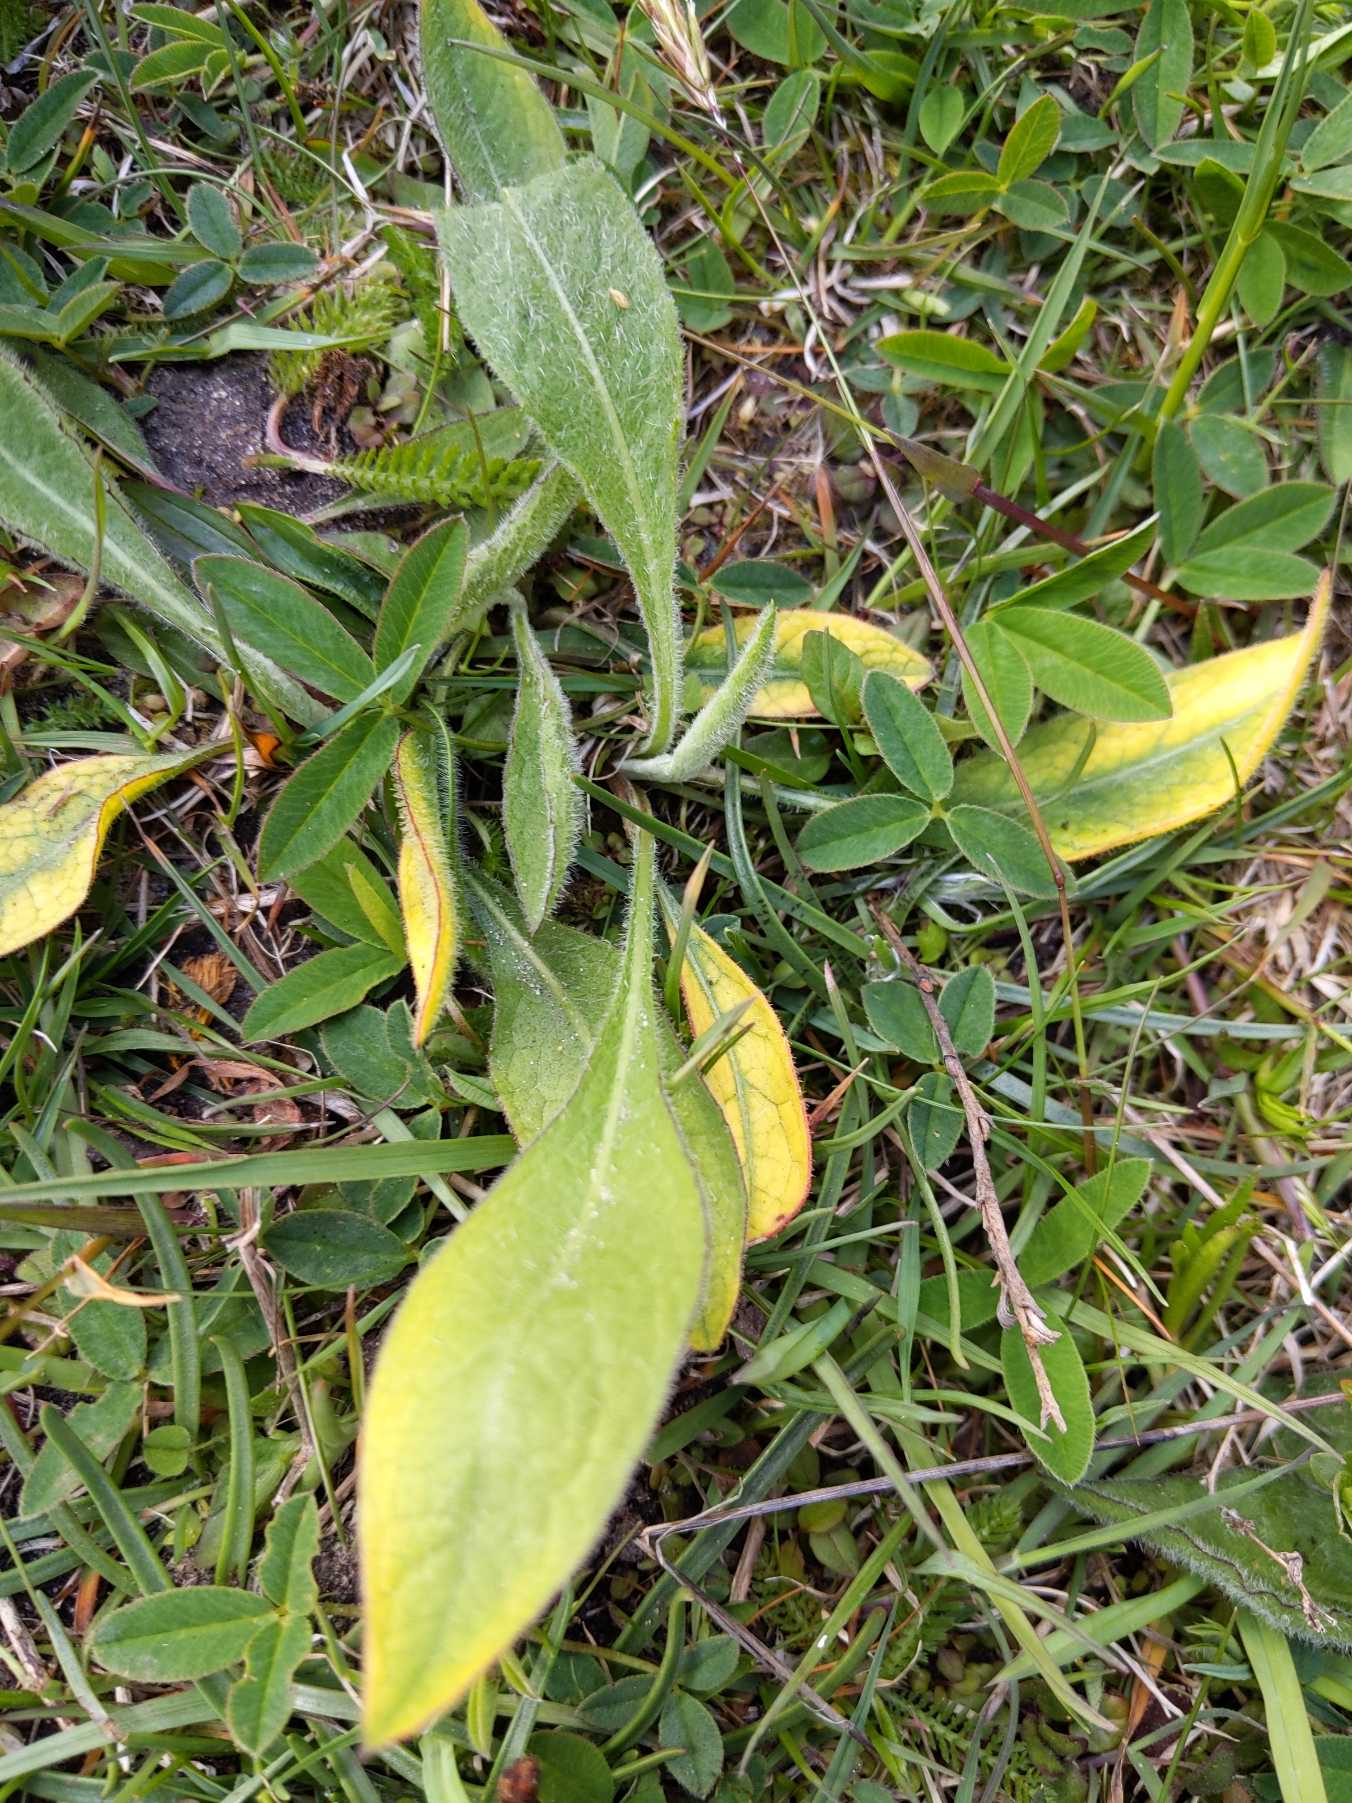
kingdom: Plantae
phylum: Tracheophyta
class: Magnoliopsida
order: Asterales
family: Asteraceae
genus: Centaurea
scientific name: Centaurea jacea
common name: Almindelig knopurt
